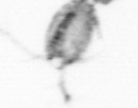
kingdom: Animalia
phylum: Arthropoda
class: Copepoda
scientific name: Copepoda
